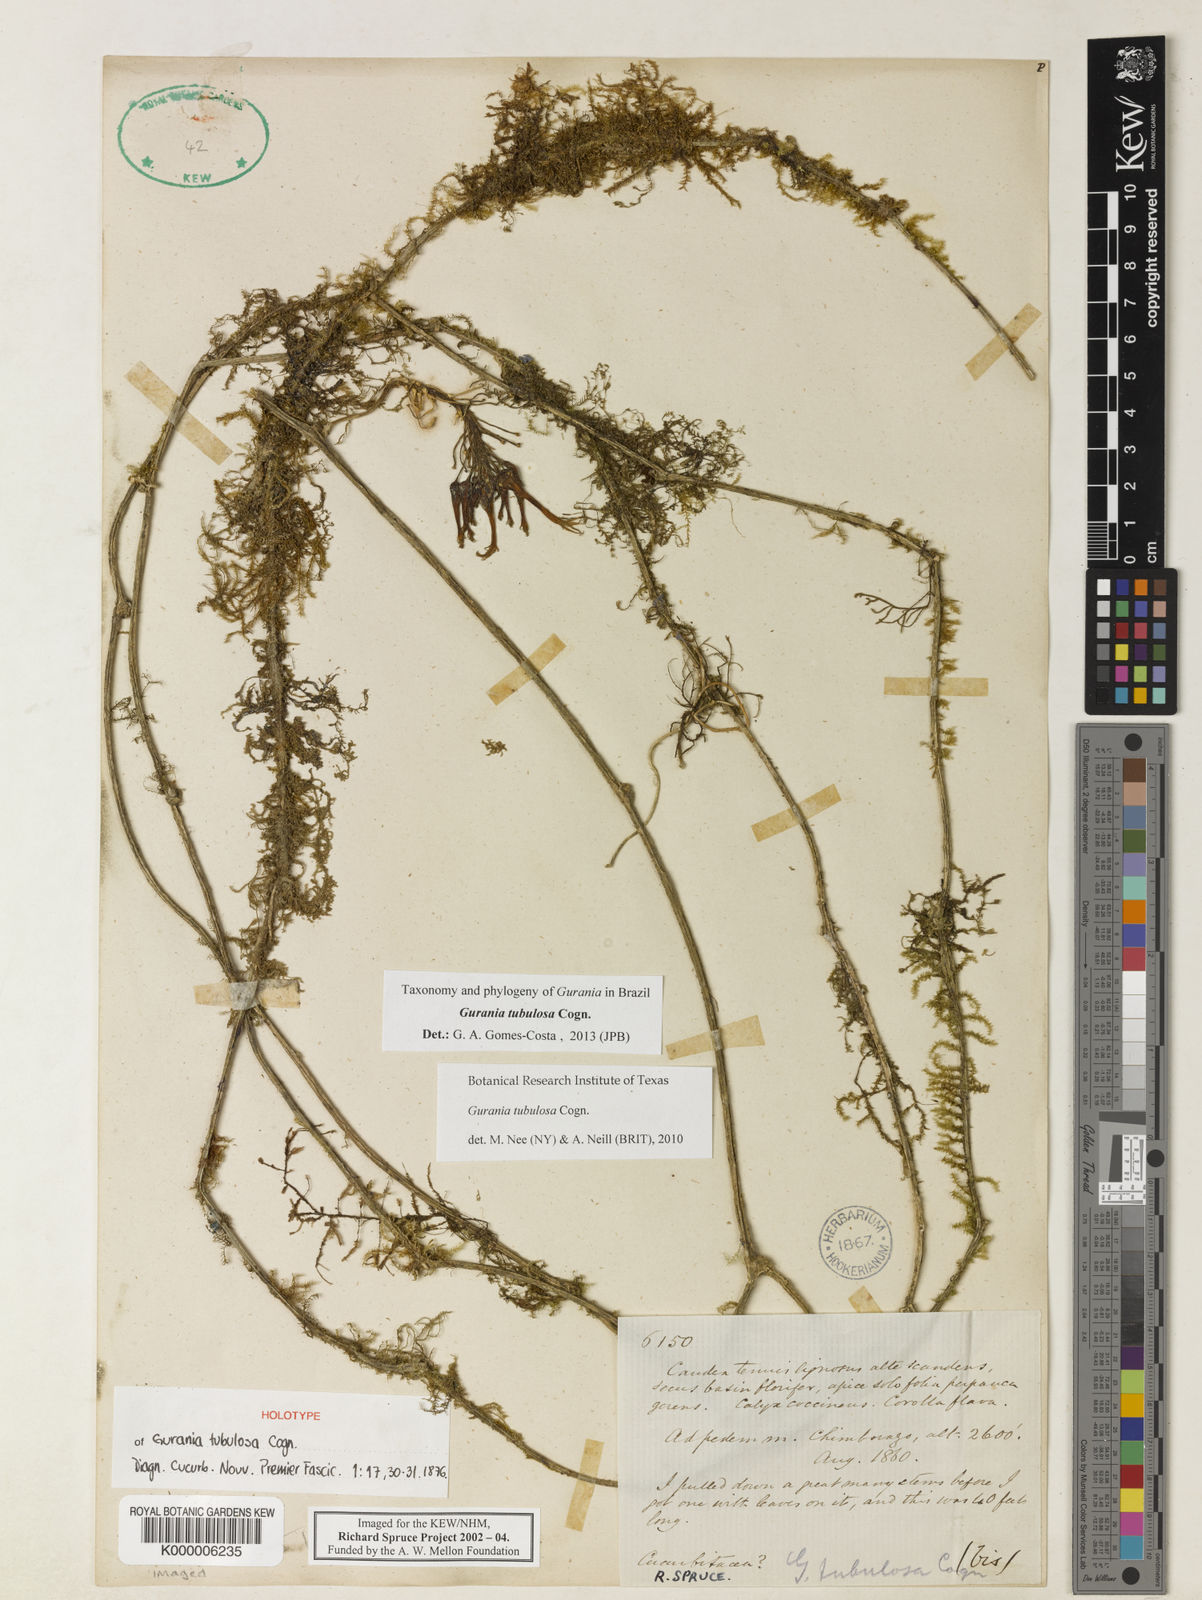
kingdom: Plantae
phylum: Tracheophyta
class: Magnoliopsida
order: Cucurbitales
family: Cucurbitaceae
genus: Gurania
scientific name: Gurania tubulosa
